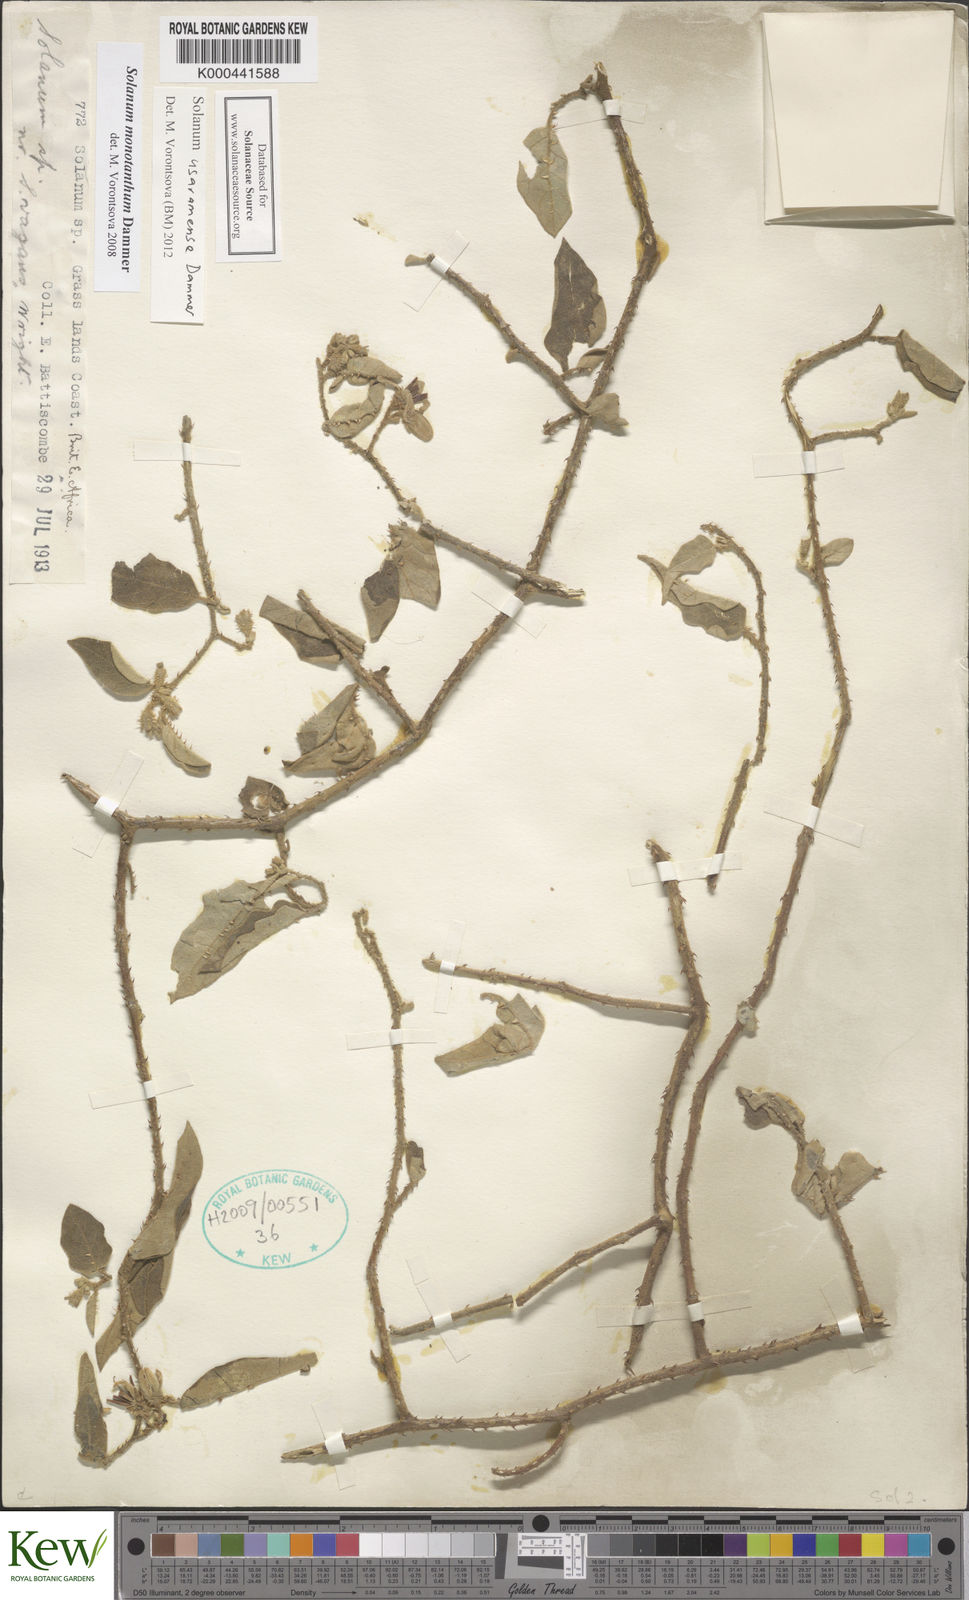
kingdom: Plantae
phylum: Tracheophyta
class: Magnoliopsida
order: Solanales
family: Solanaceae
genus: Solanum
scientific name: Solanum usaramense
